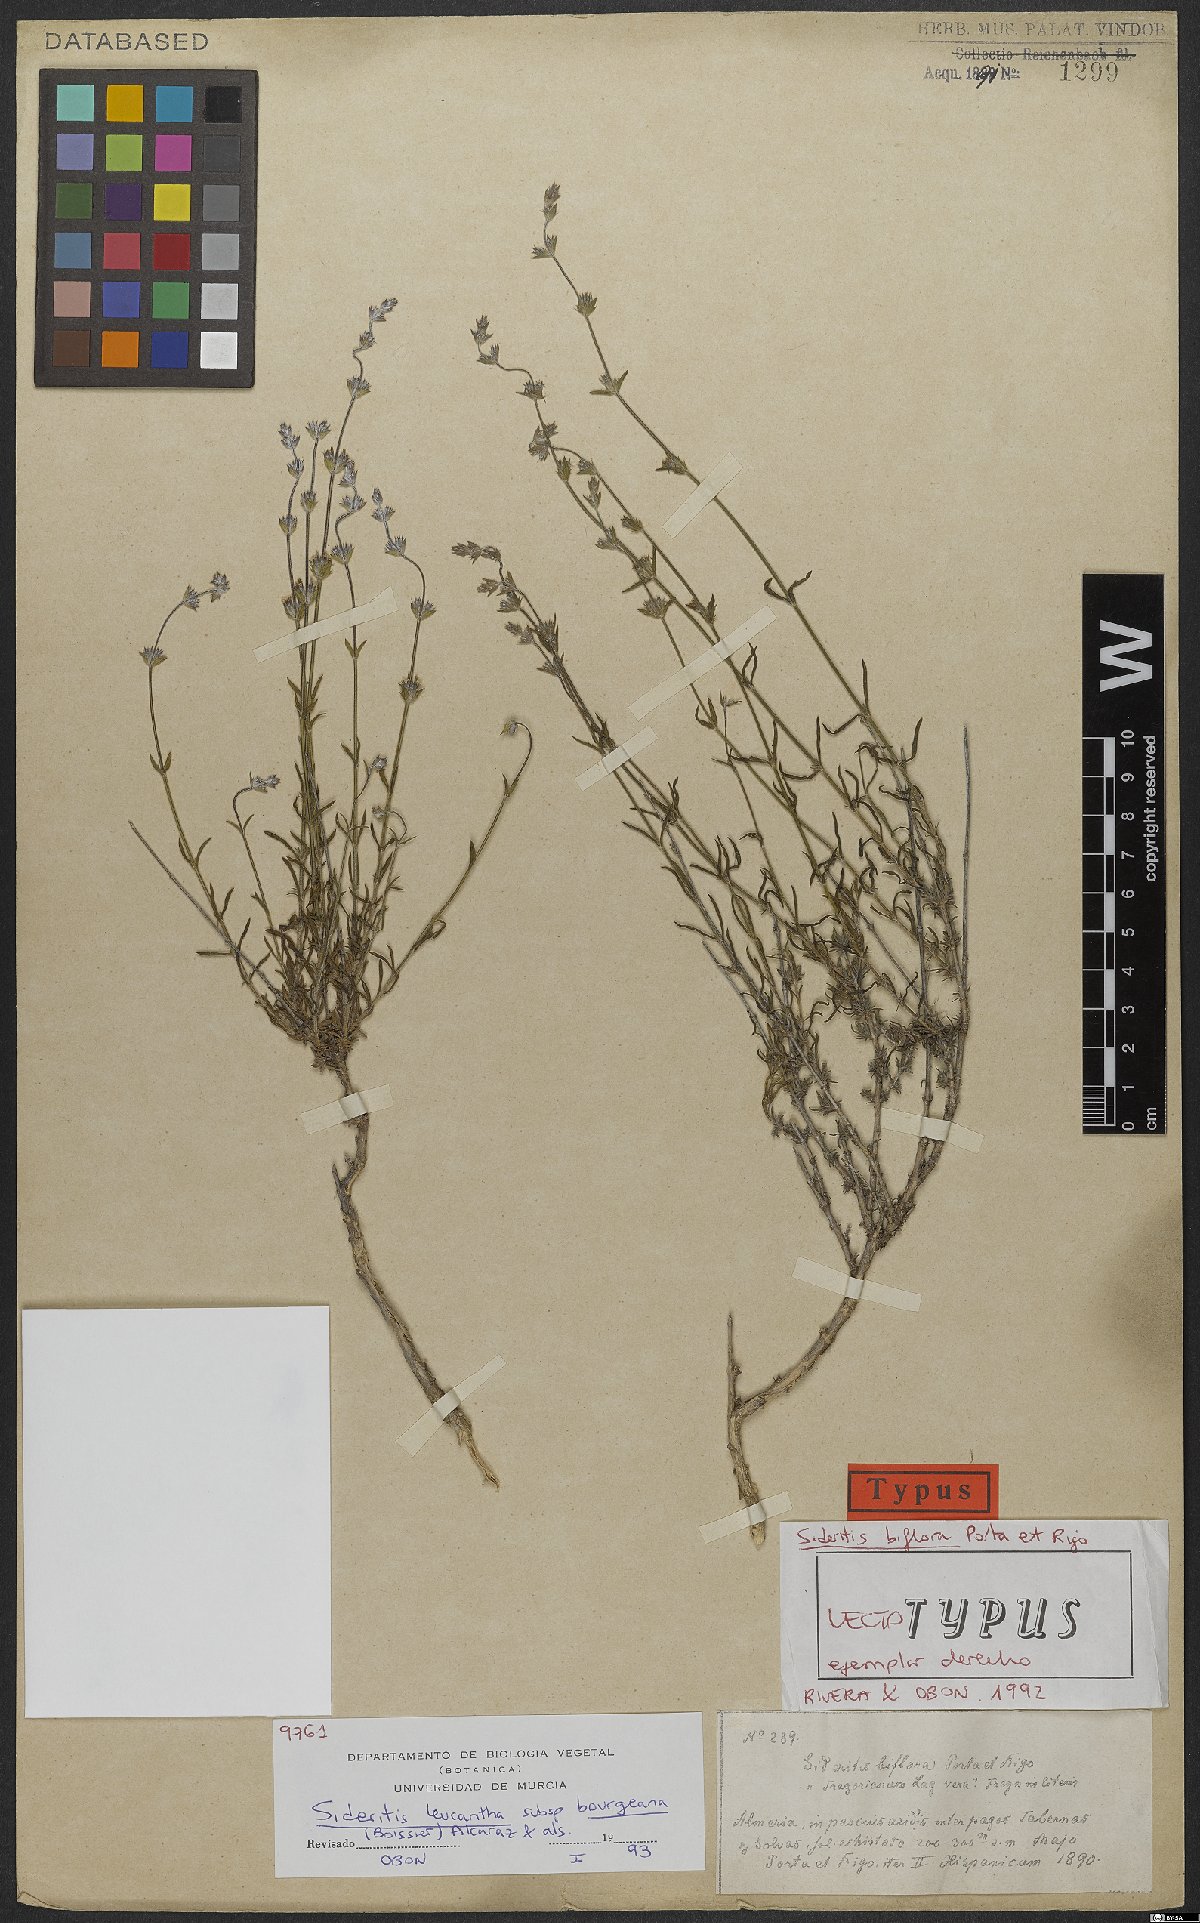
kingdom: Plantae
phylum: Tracheophyta
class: Magnoliopsida
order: Lamiales
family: Lamiaceae
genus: Sideritis
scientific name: Sideritis bourgeana
